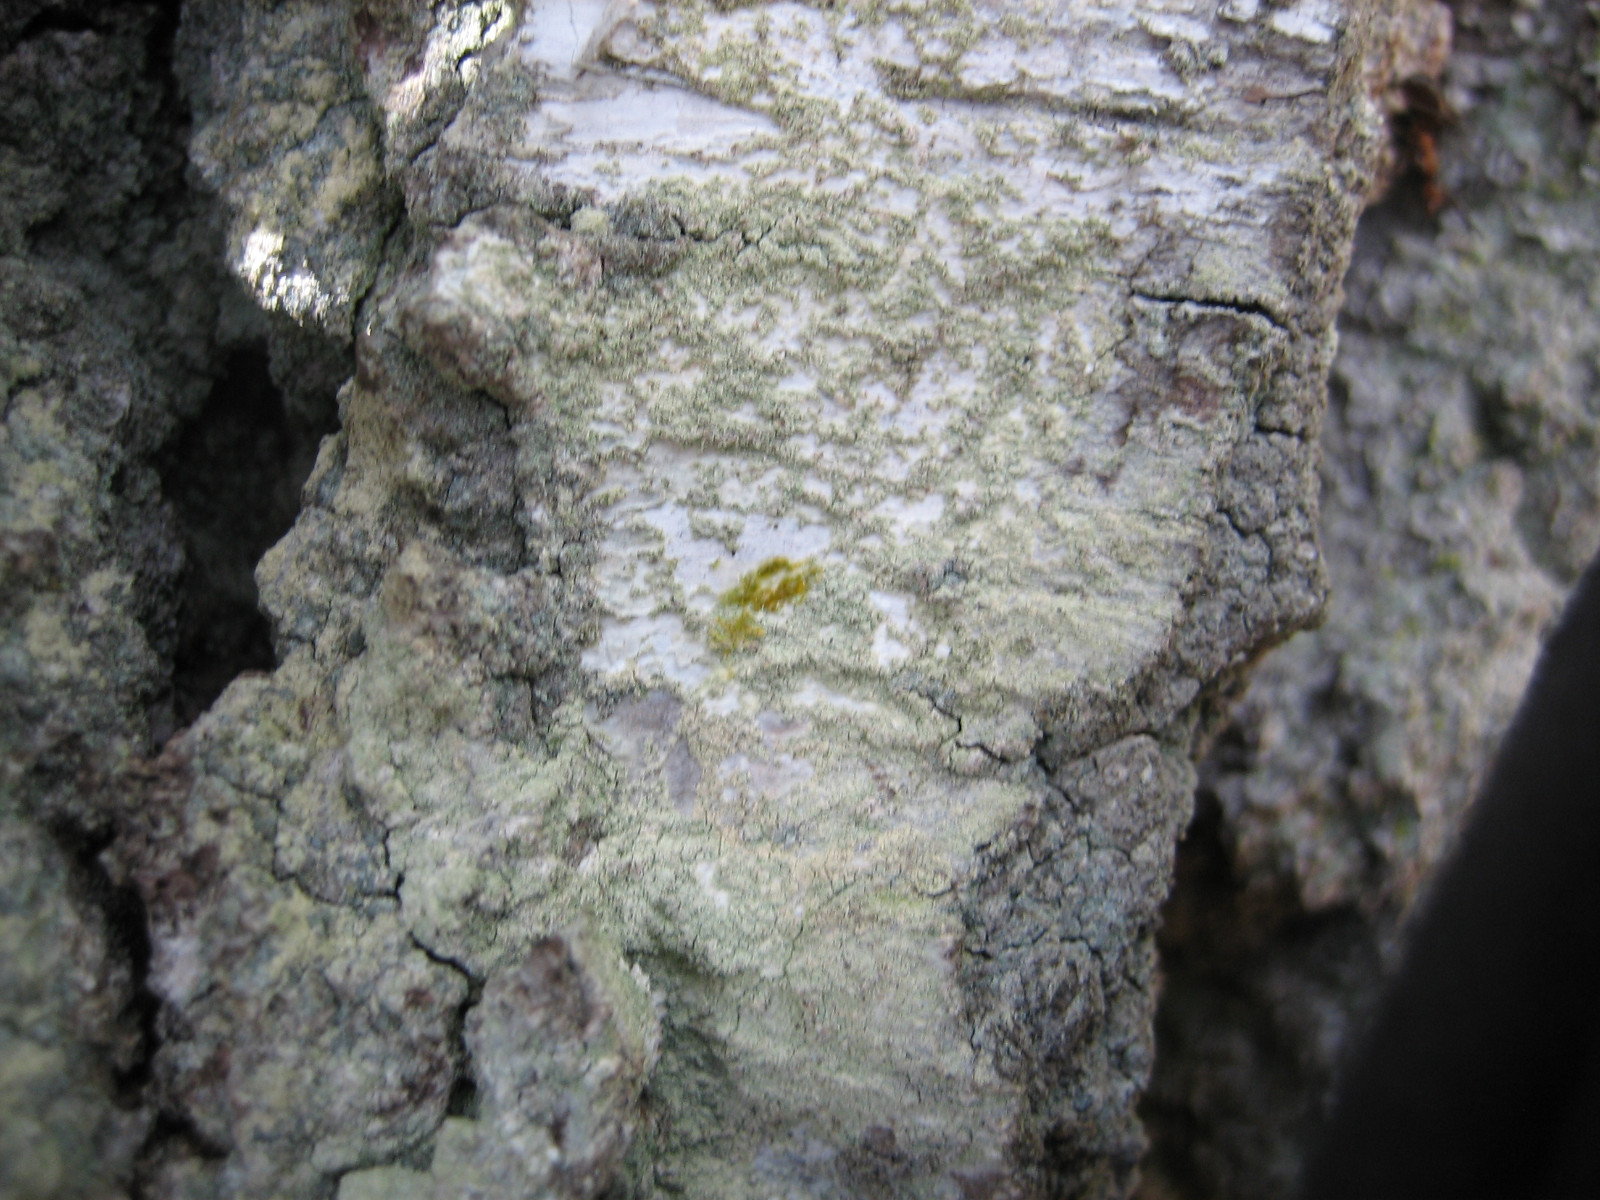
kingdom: Fungi
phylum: Ascomycota
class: Lecanoromycetes
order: Lecanorales
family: Lecanoraceae
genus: Lecanora
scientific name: Lecanora expallens
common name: bleggul kantskivelav
